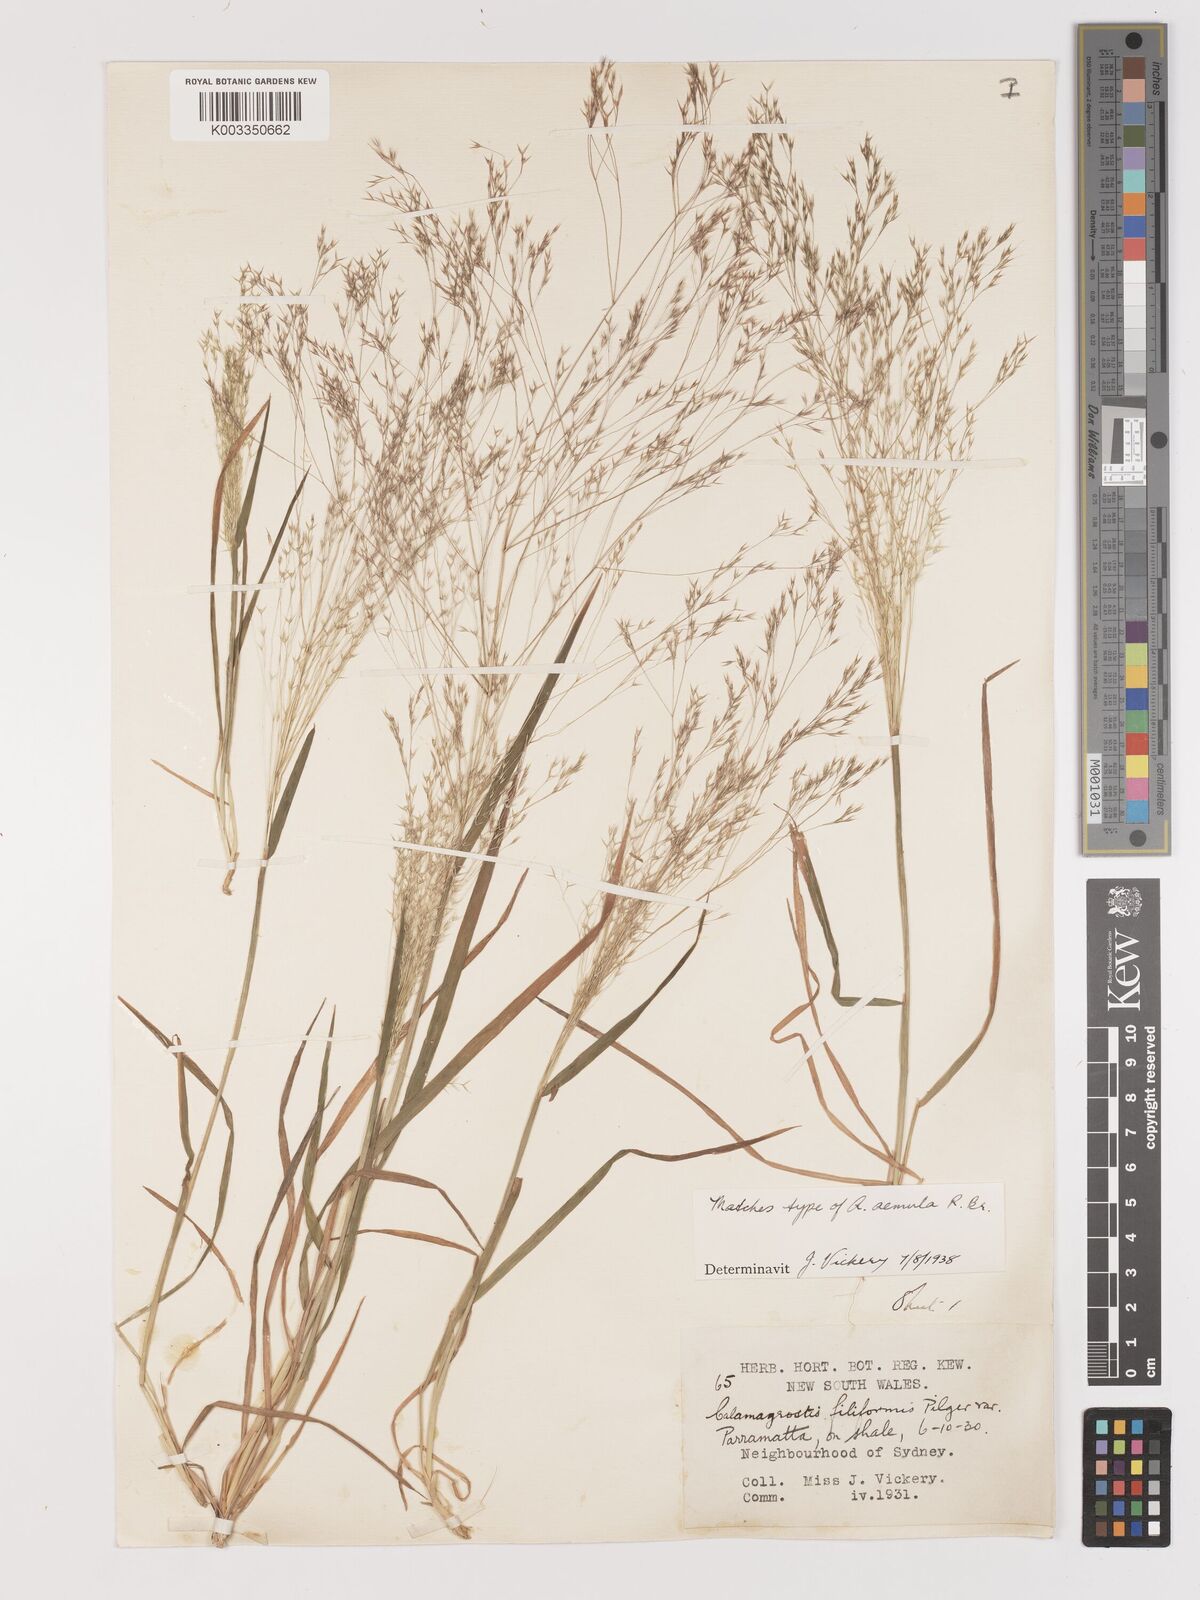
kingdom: Plantae
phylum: Tracheophyta
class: Liliopsida
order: Poales
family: Poaceae
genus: Lachnagrostis
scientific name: Lachnagrostis aemula
